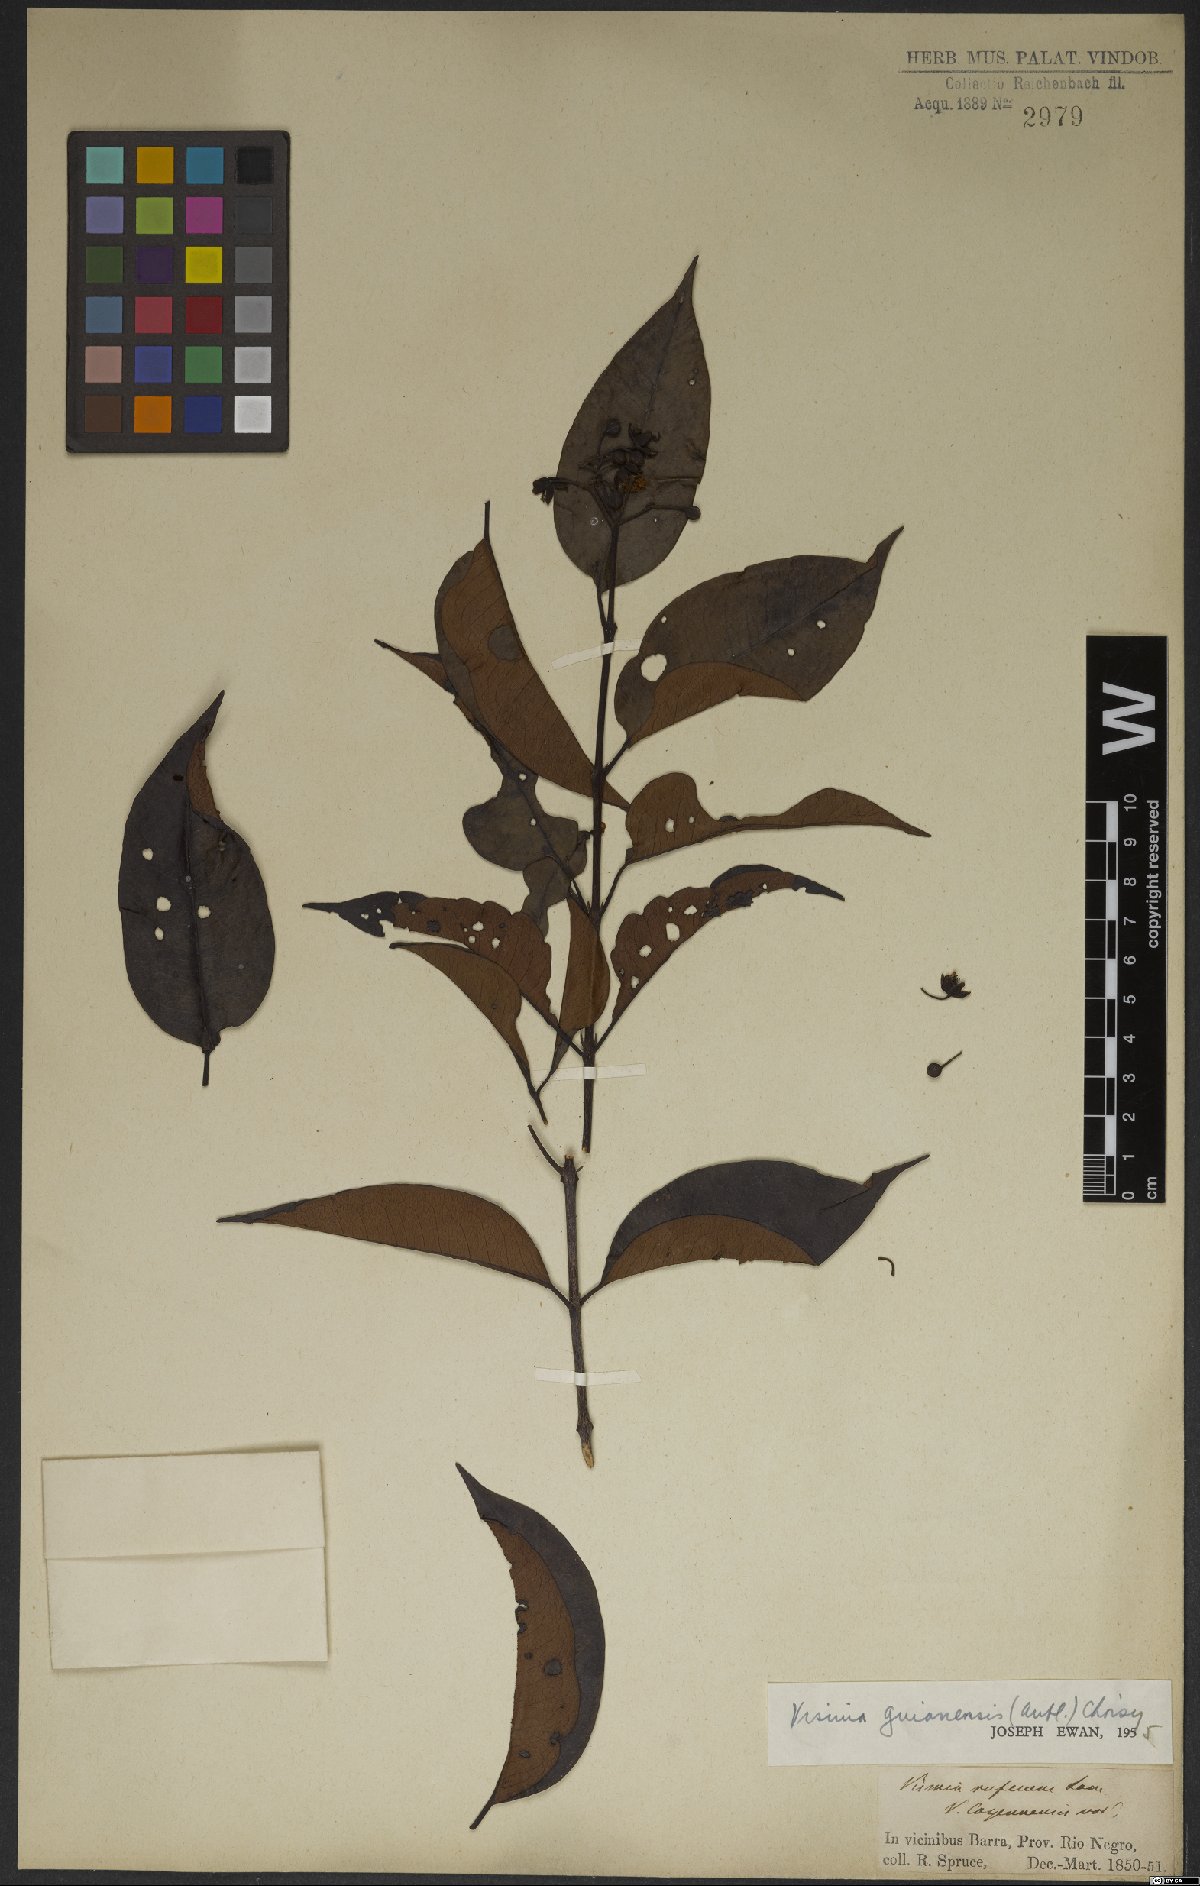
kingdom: Plantae
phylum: Tracheophyta
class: Magnoliopsida
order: Malpighiales
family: Hypericaceae
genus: Vismia
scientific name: Vismia cayennensis
